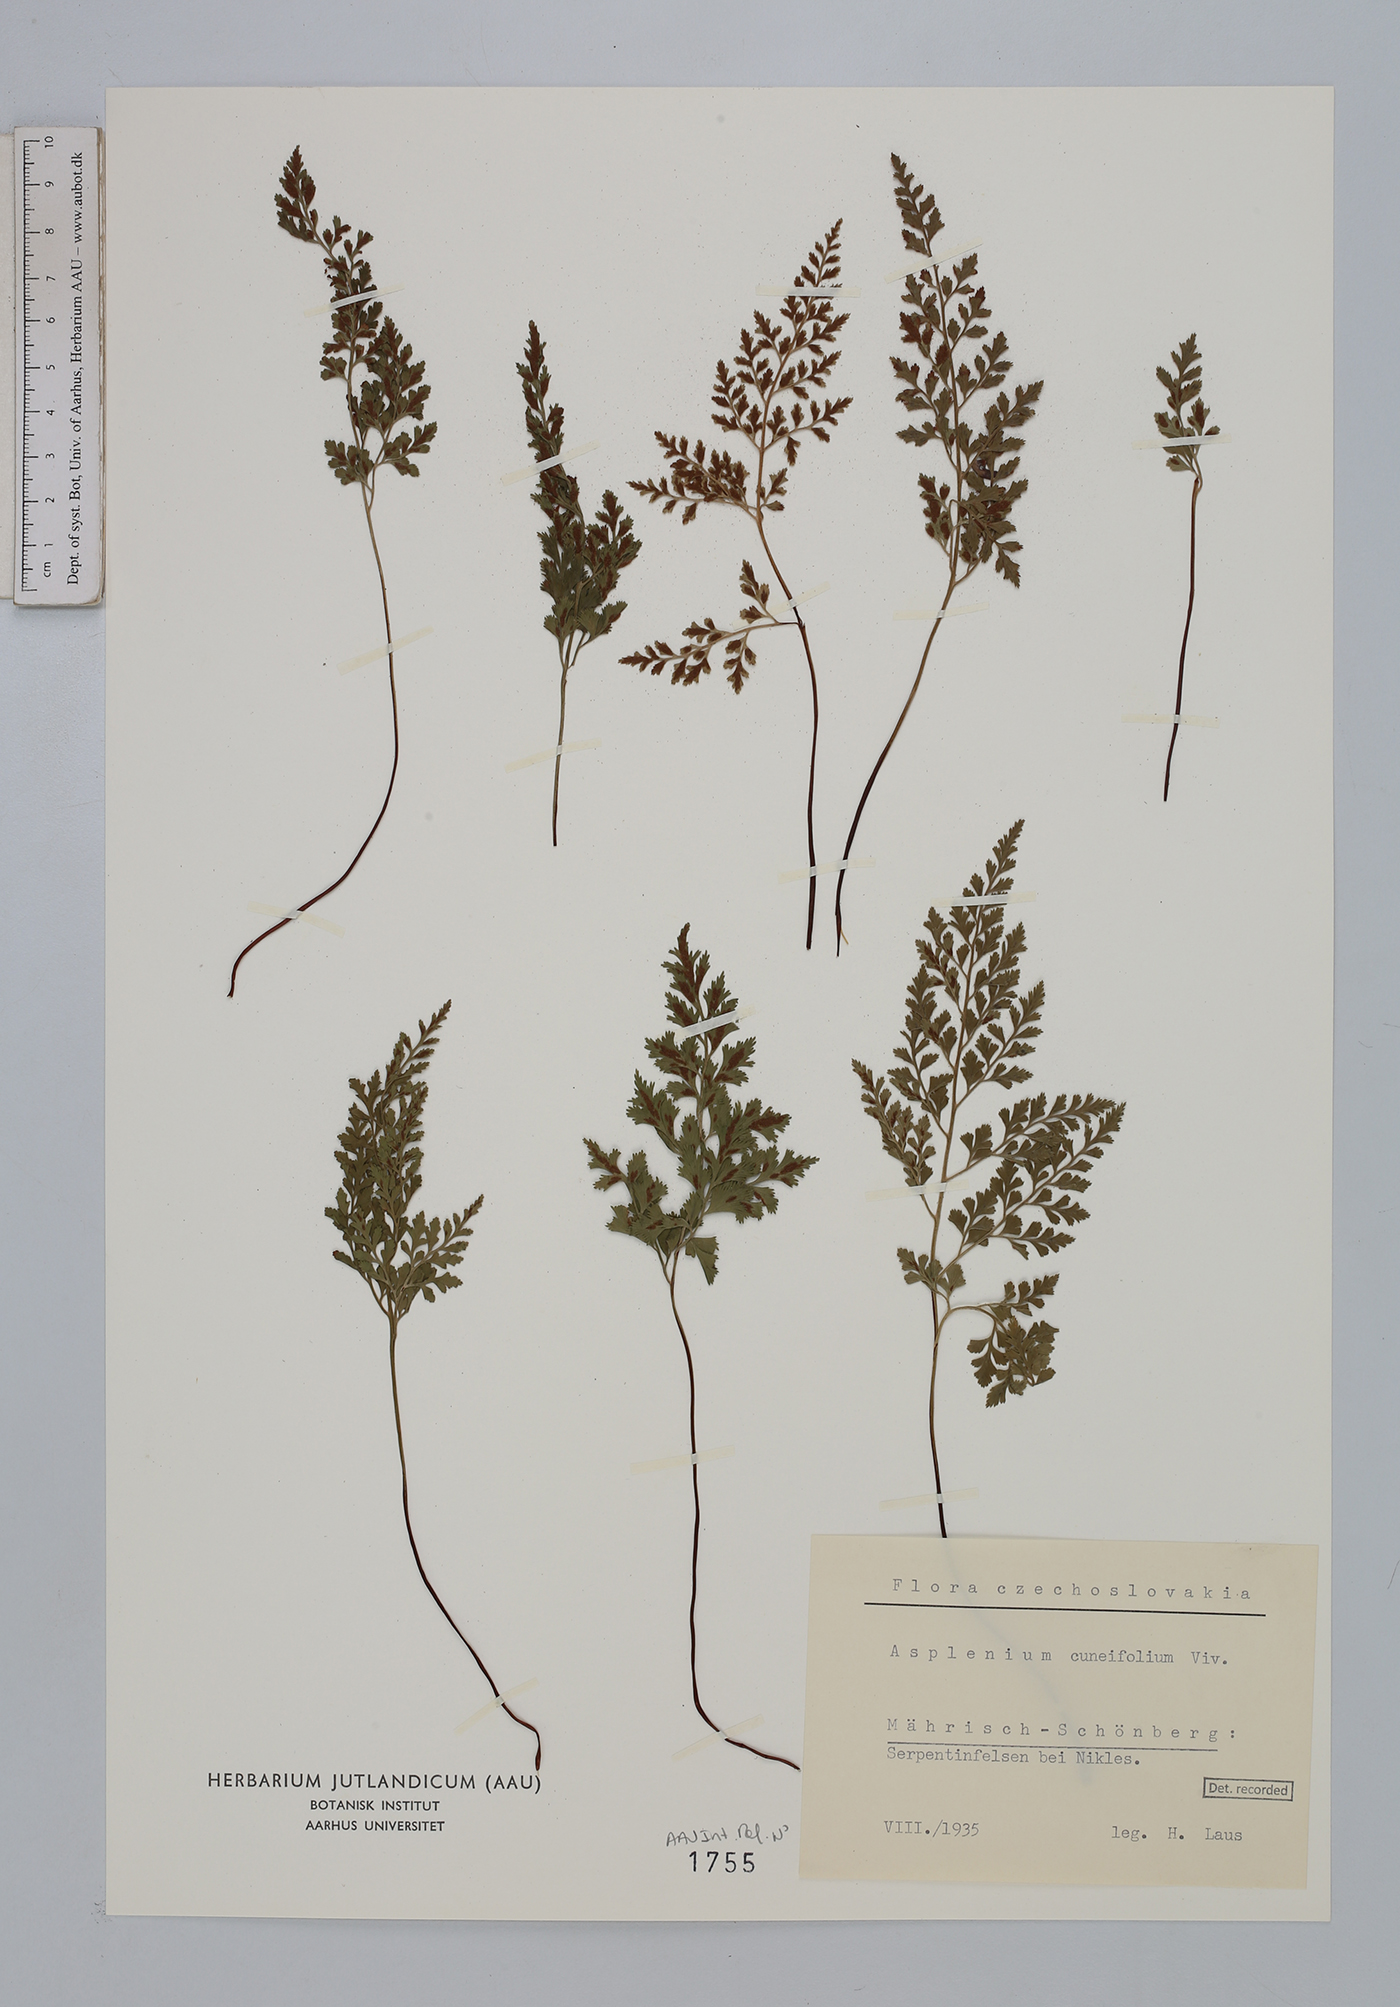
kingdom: Plantae
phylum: Tracheophyta
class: Polypodiopsida
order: Polypodiales
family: Aspleniaceae
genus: Asplenium
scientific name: Asplenium cuneifolium
